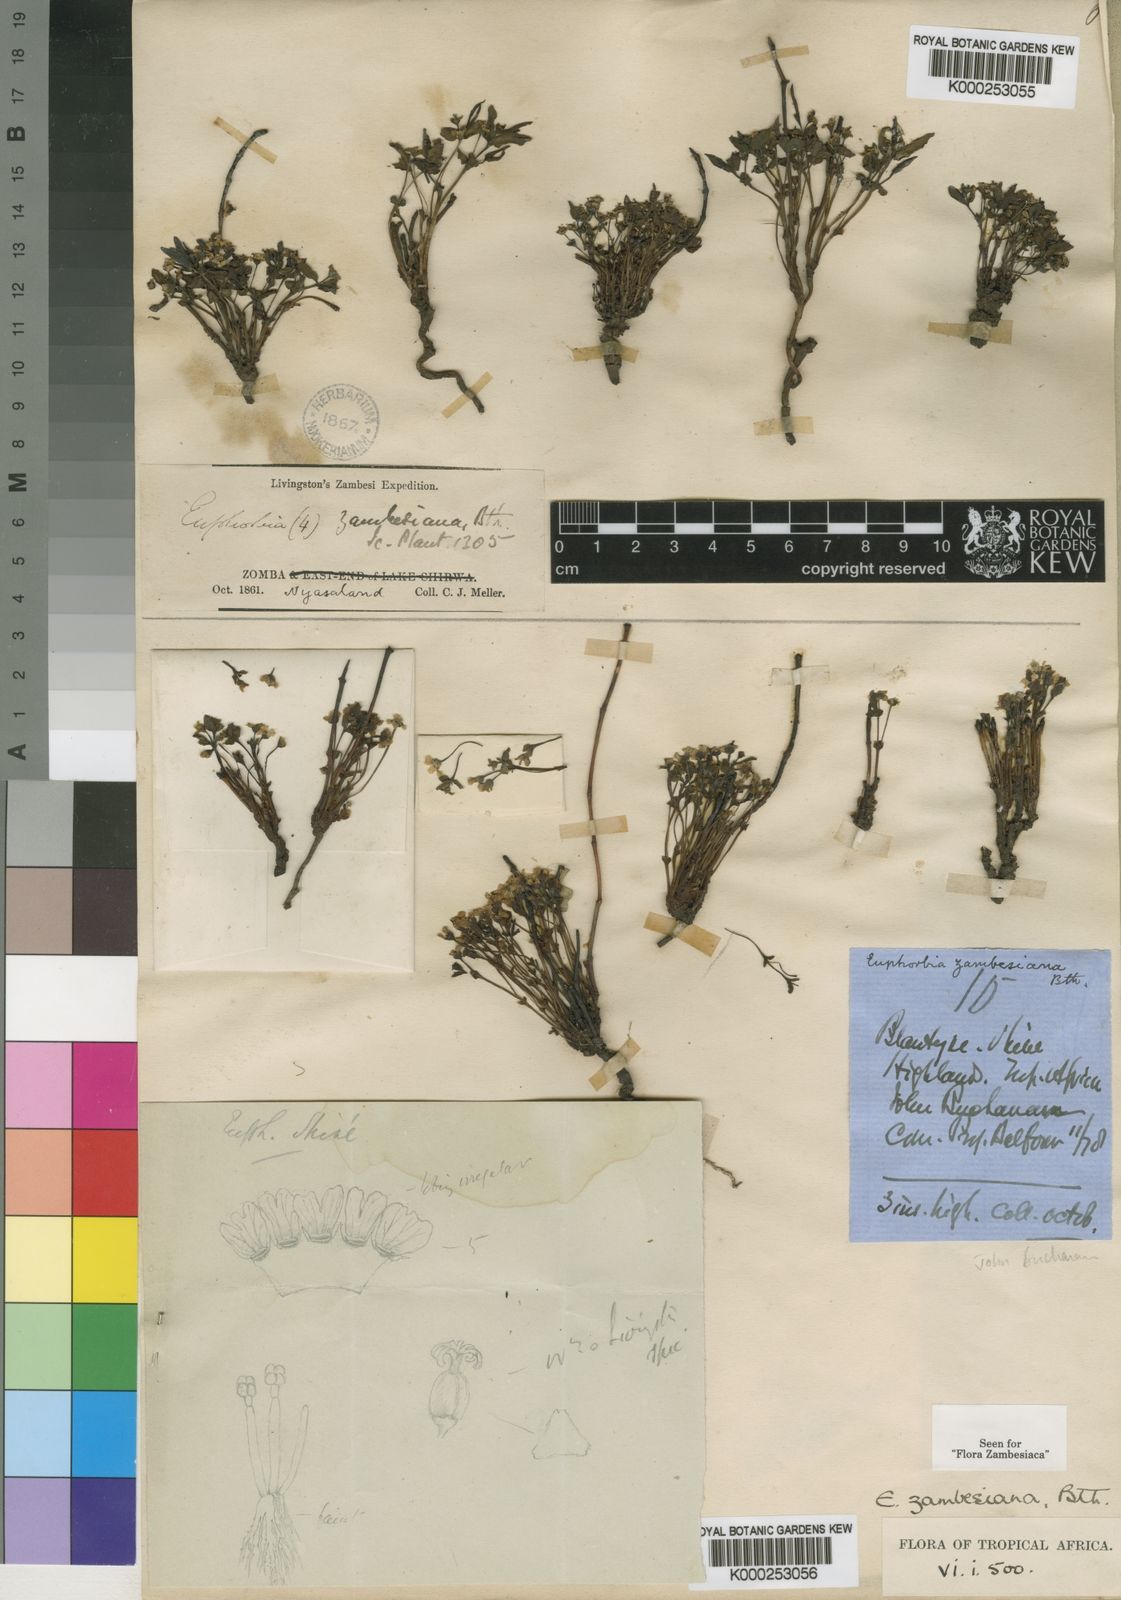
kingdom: Plantae
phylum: Tracheophyta
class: Magnoliopsida
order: Malpighiales
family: Euphorbiaceae
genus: Euphorbia
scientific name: Euphorbia zambesiana
